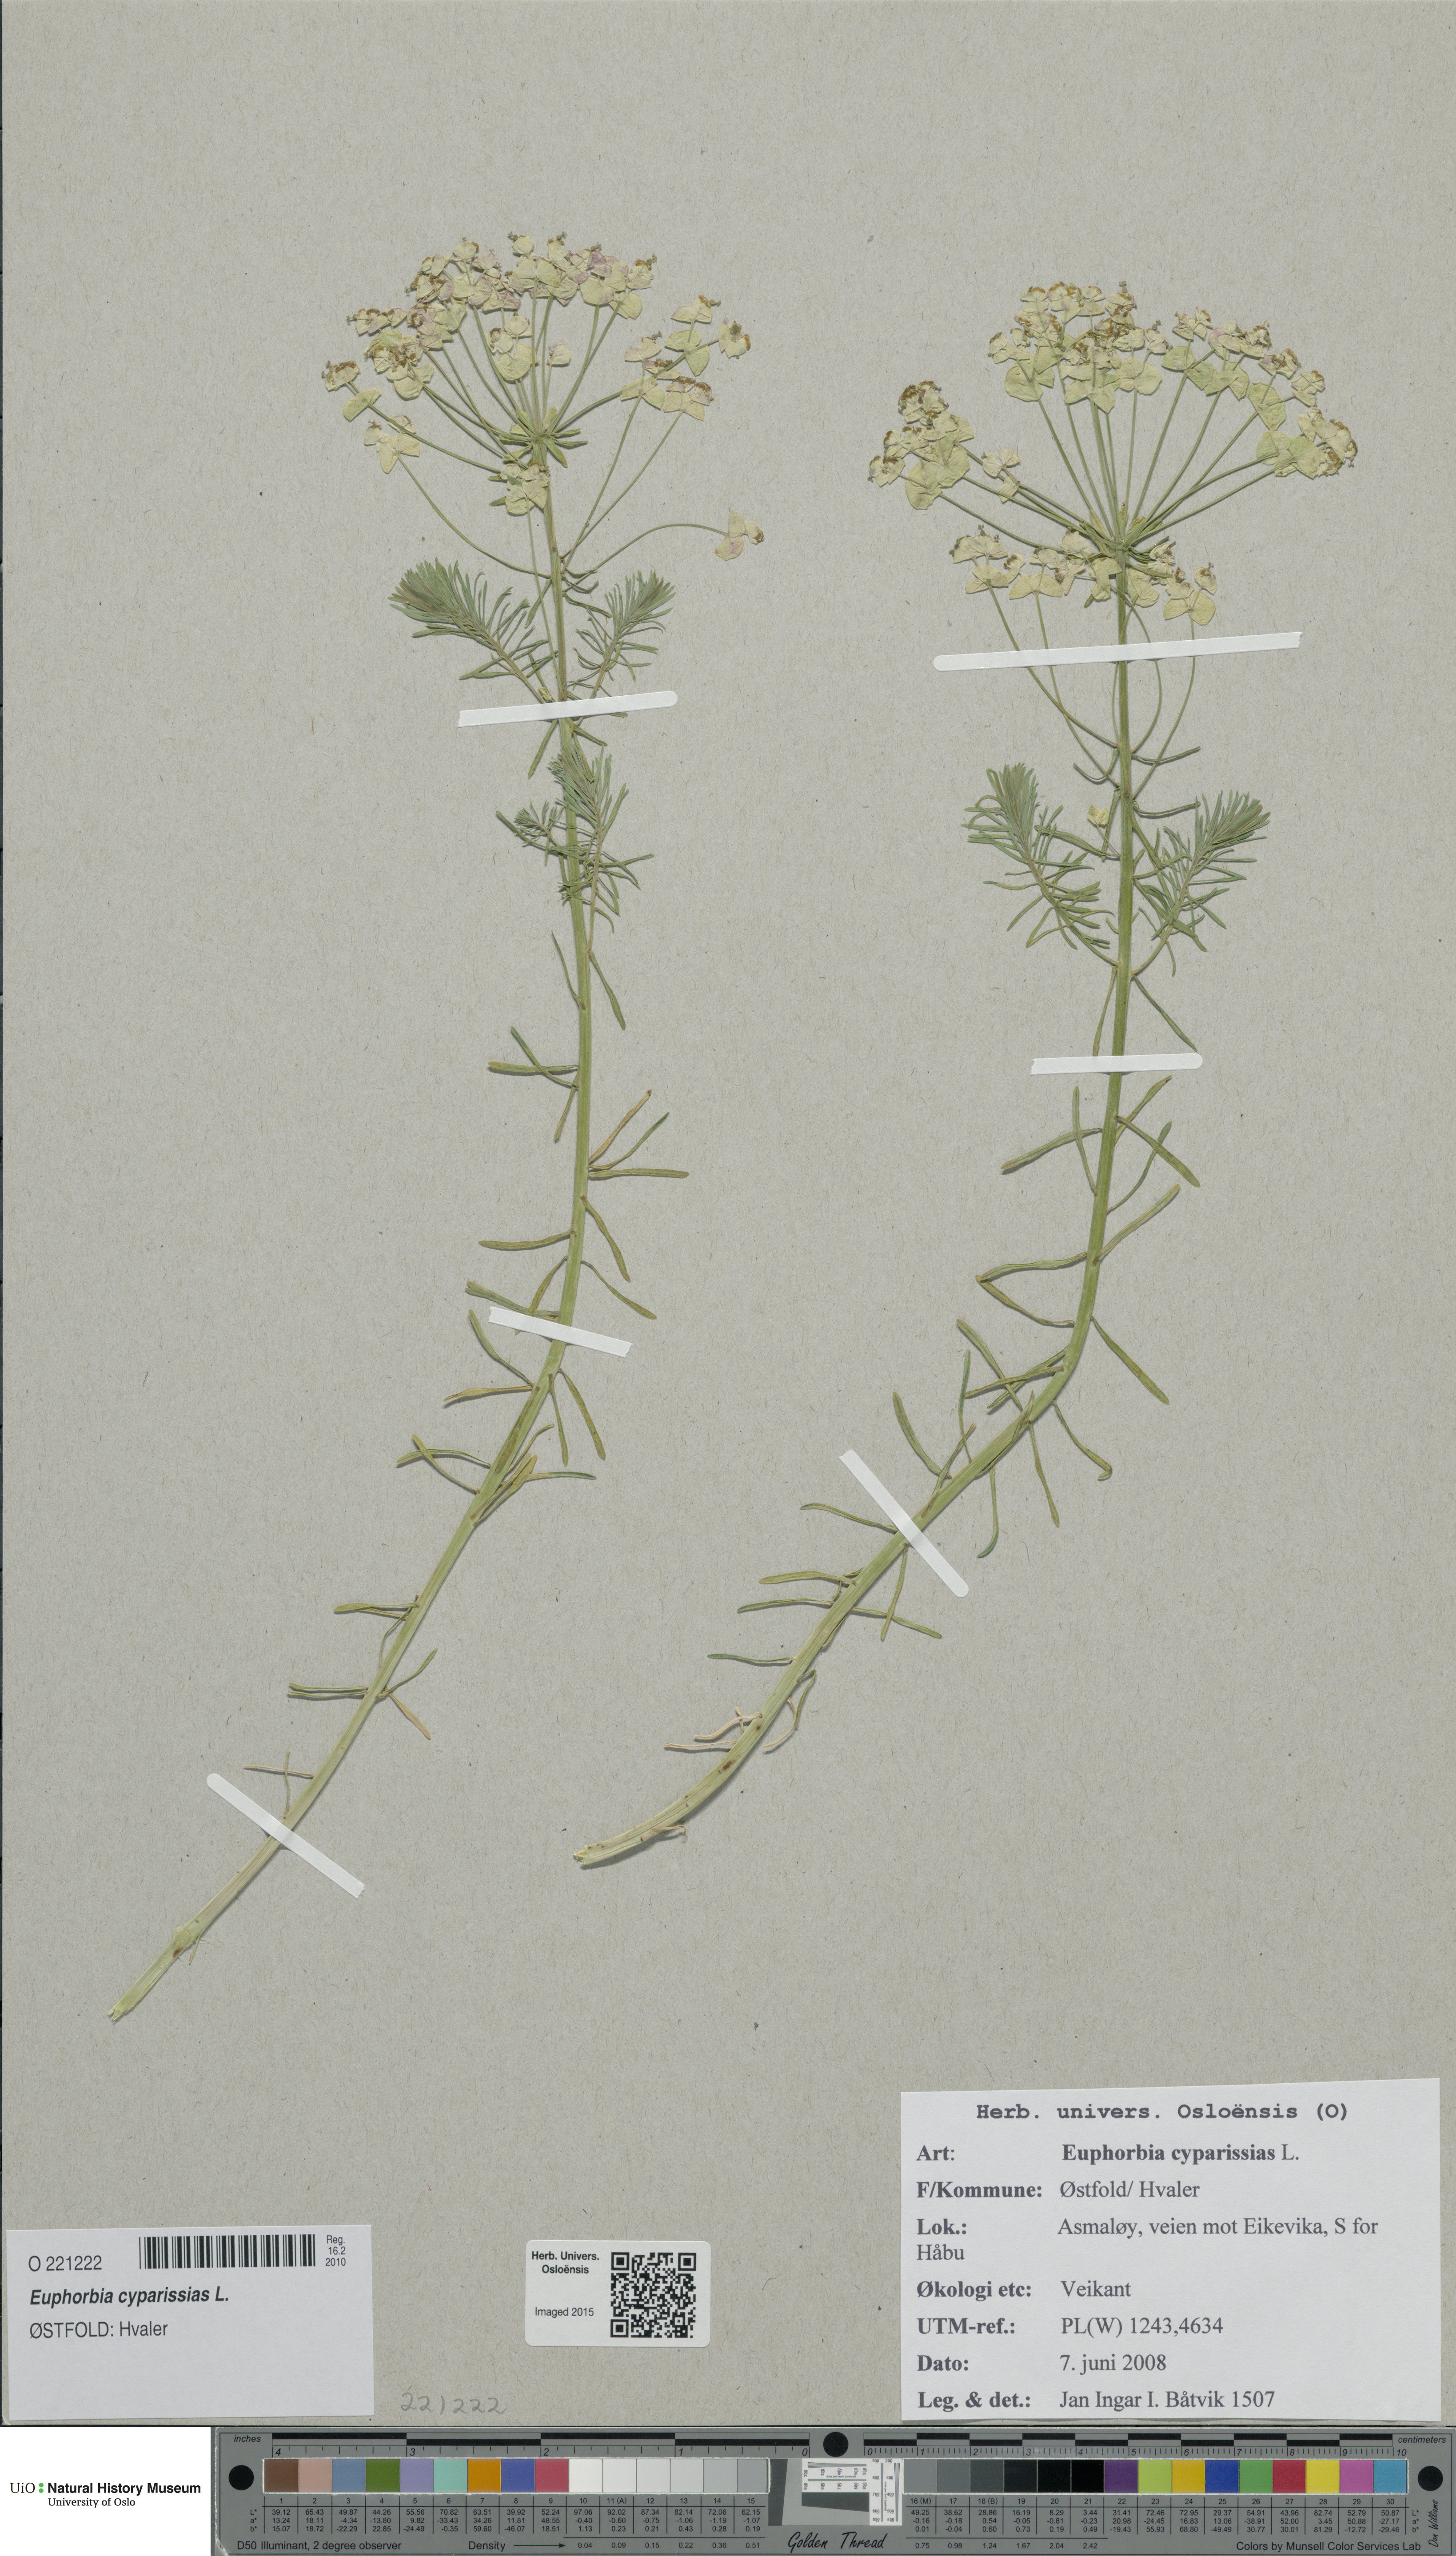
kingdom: Plantae
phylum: Tracheophyta
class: Magnoliopsida
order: Malpighiales
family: Euphorbiaceae
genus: Euphorbia
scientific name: Euphorbia cyparissias
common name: Cypress spurge
